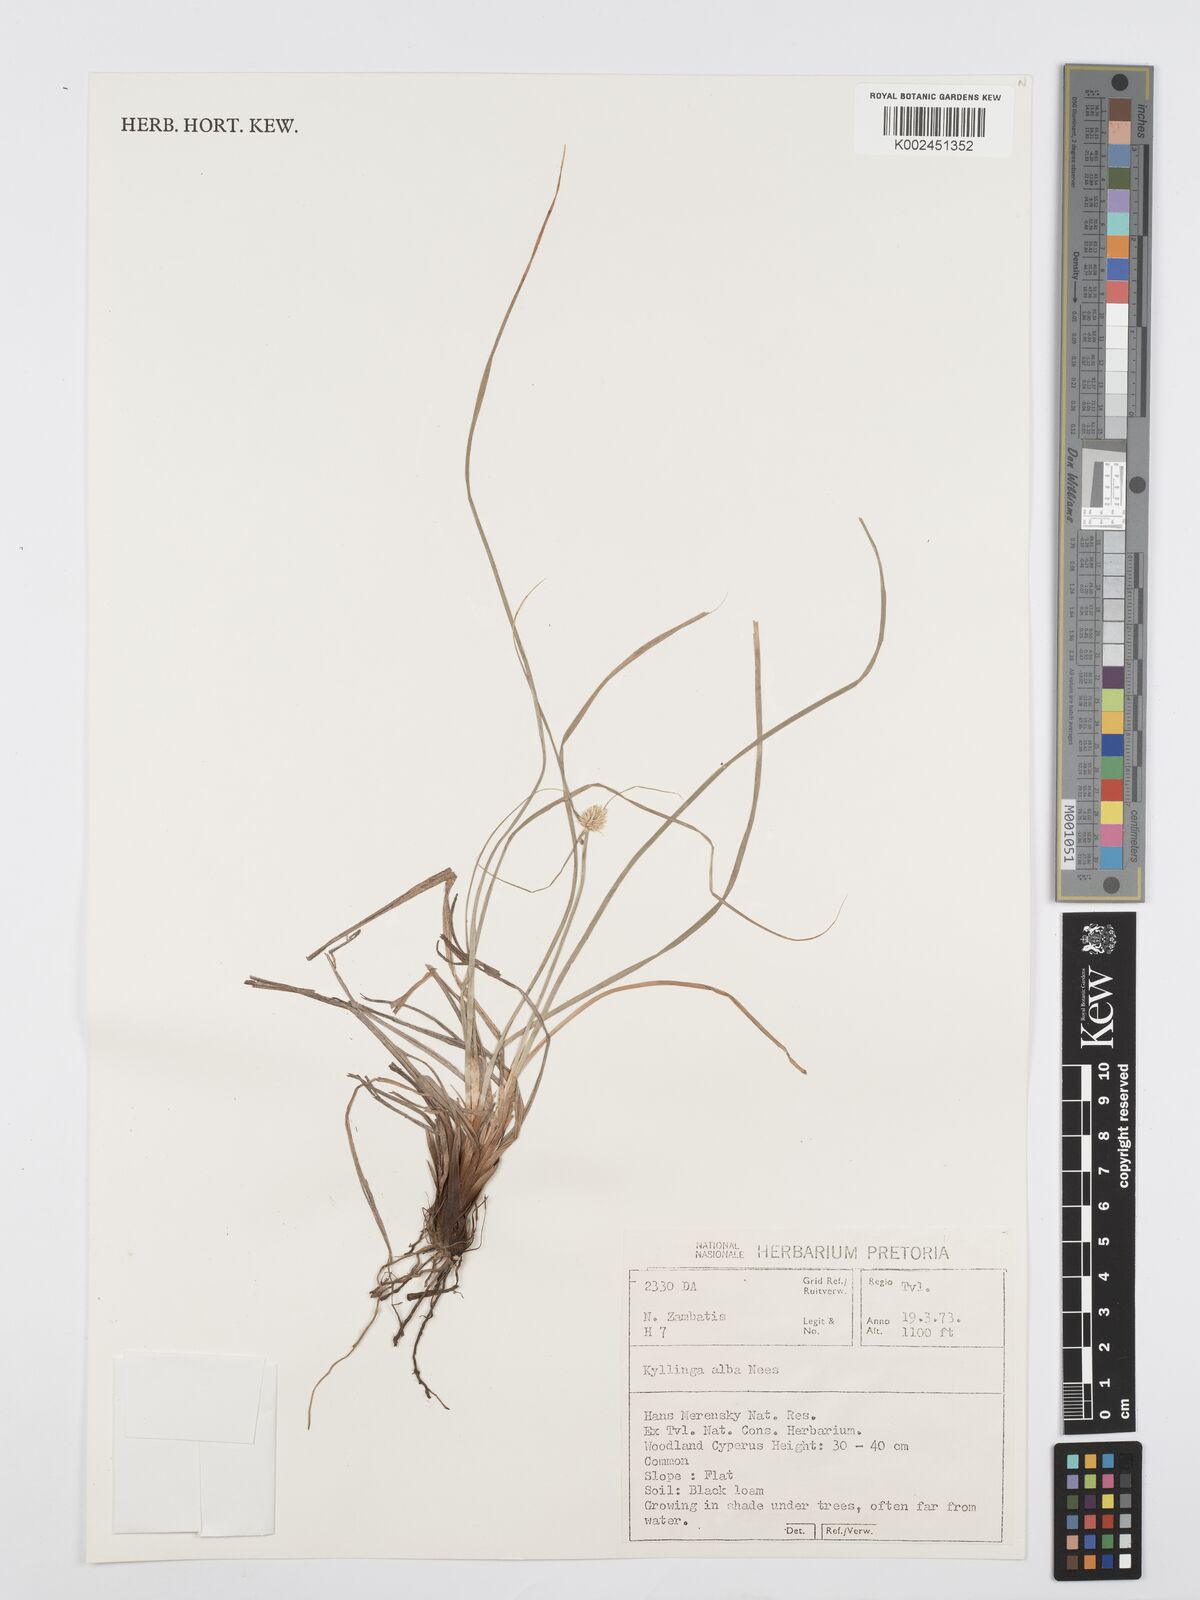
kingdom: Plantae
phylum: Tracheophyta
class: Liliopsida
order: Poales
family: Cyperaceae
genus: Cyperus
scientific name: Cyperus
